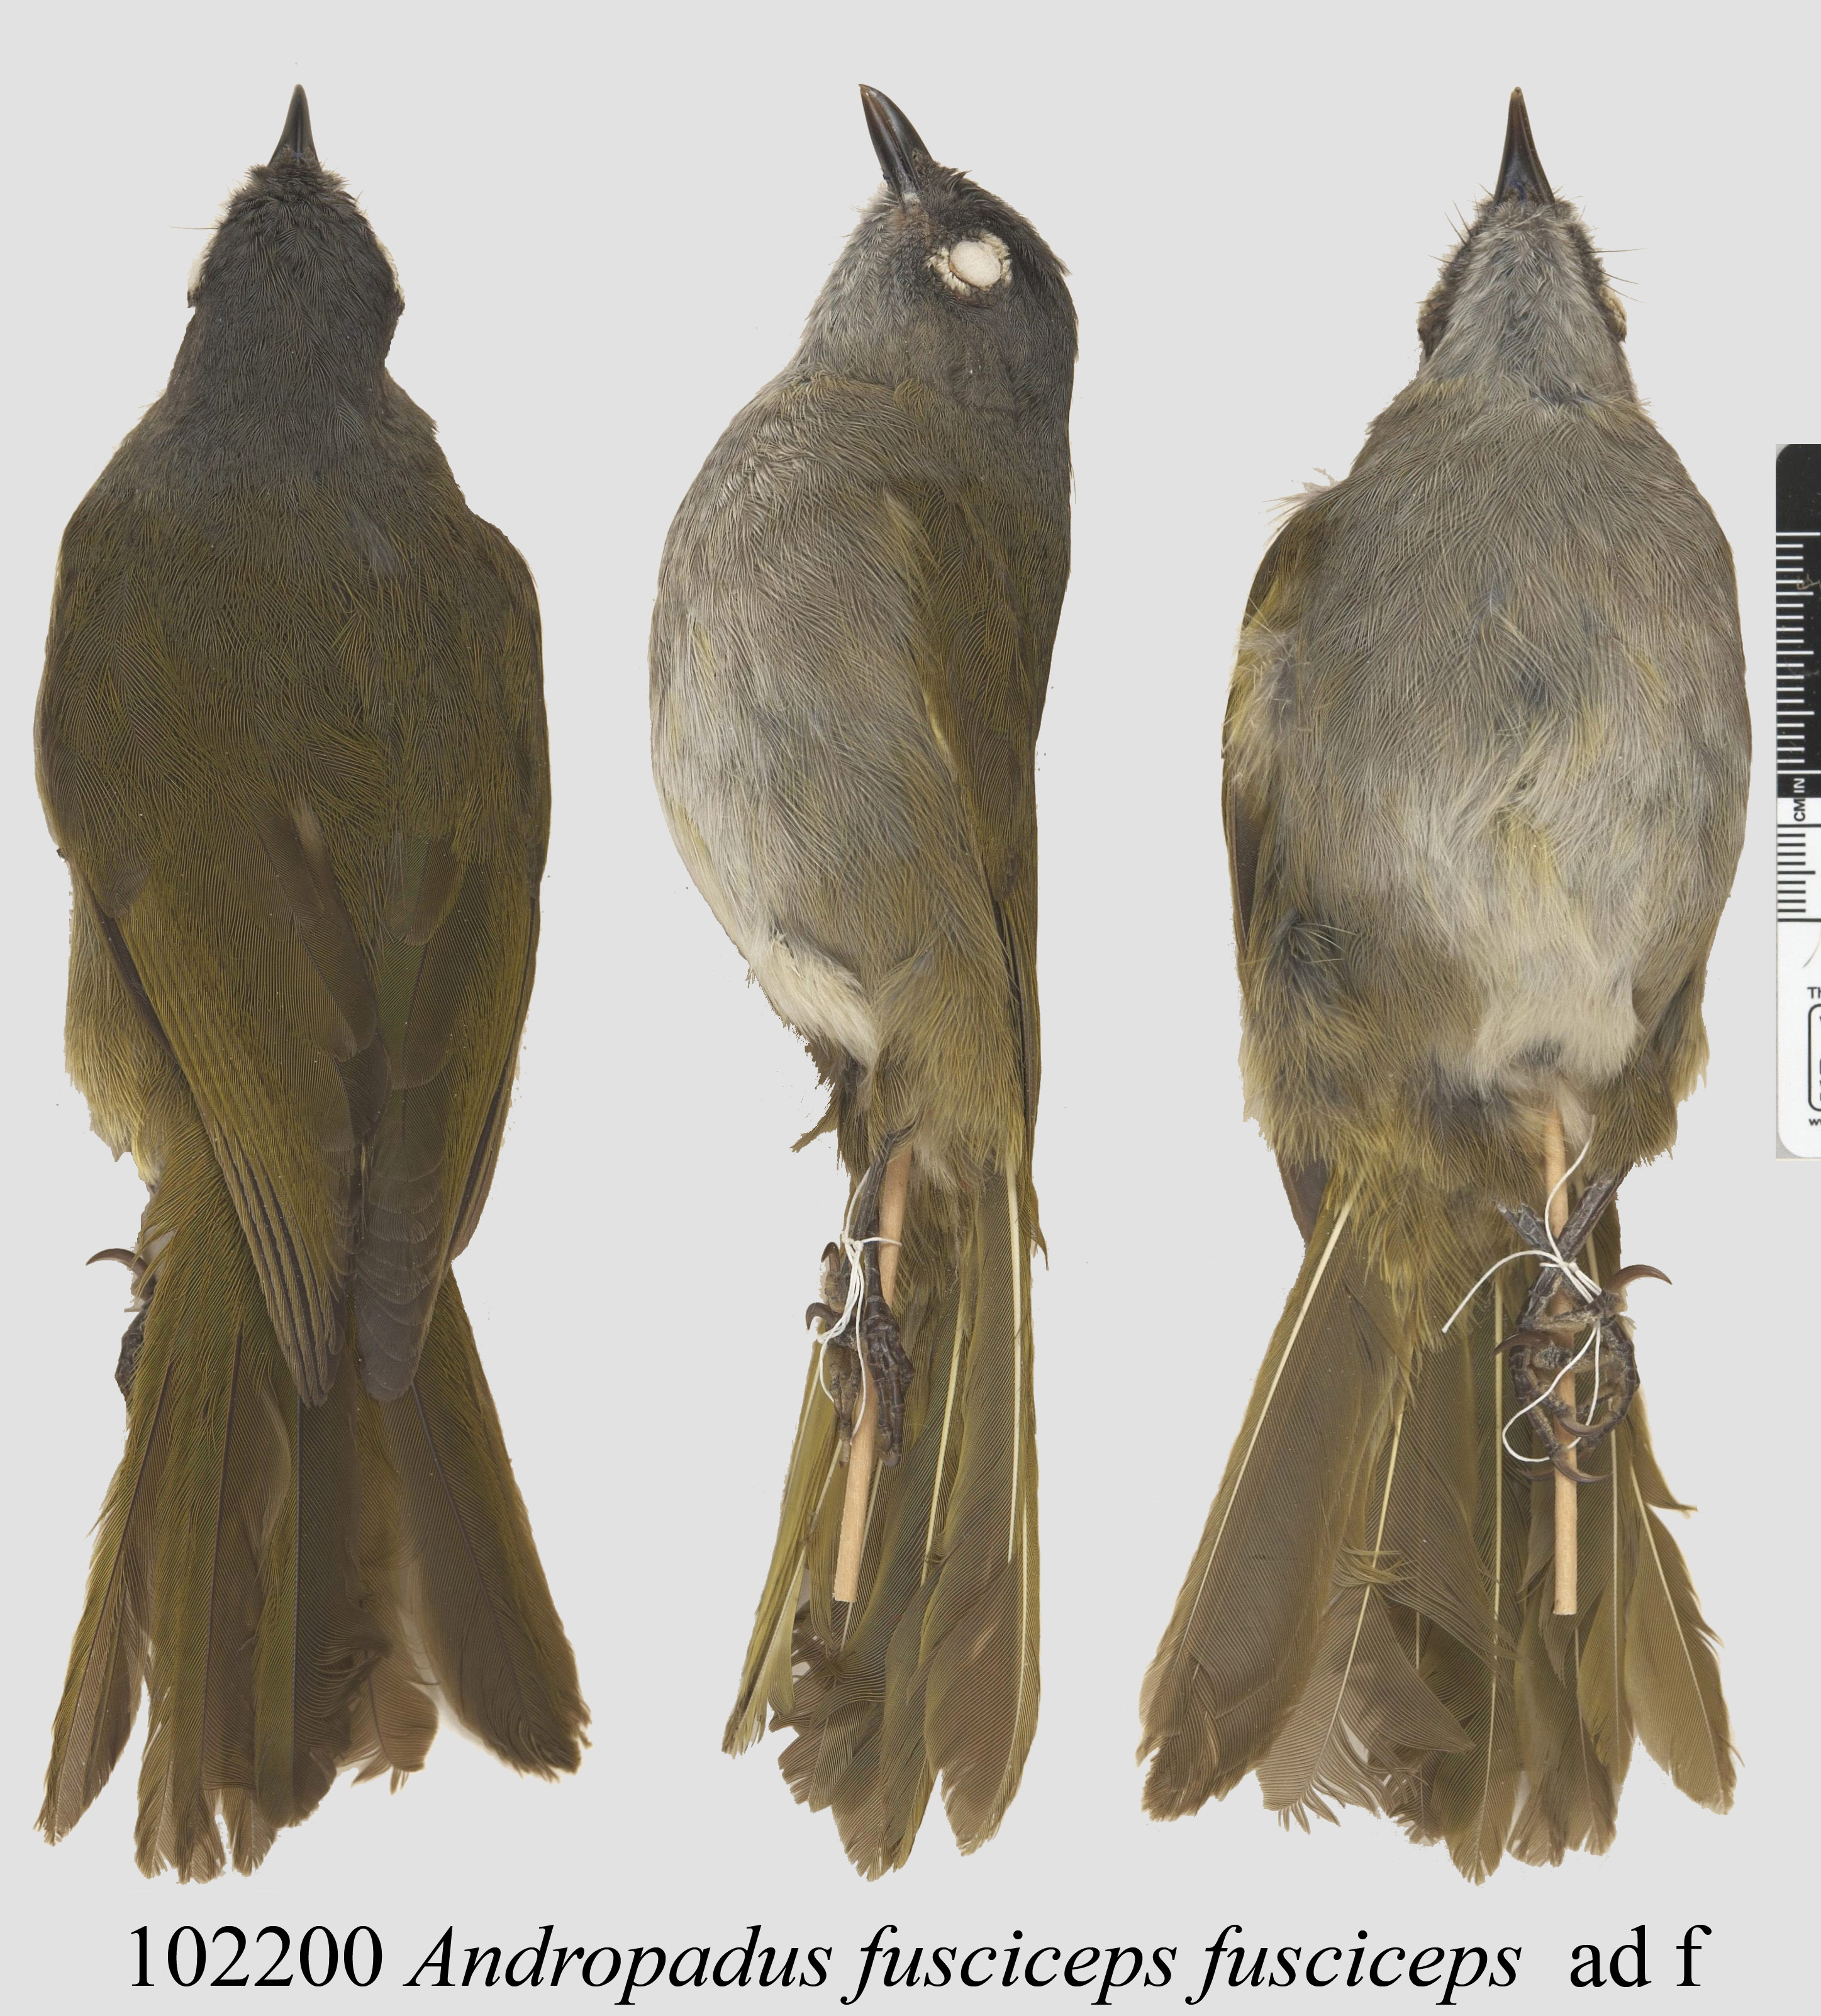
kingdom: Animalia
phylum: Chordata
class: Aves
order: Passeriformes
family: Pycnonotidae
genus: Andropadus
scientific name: Andropadus
